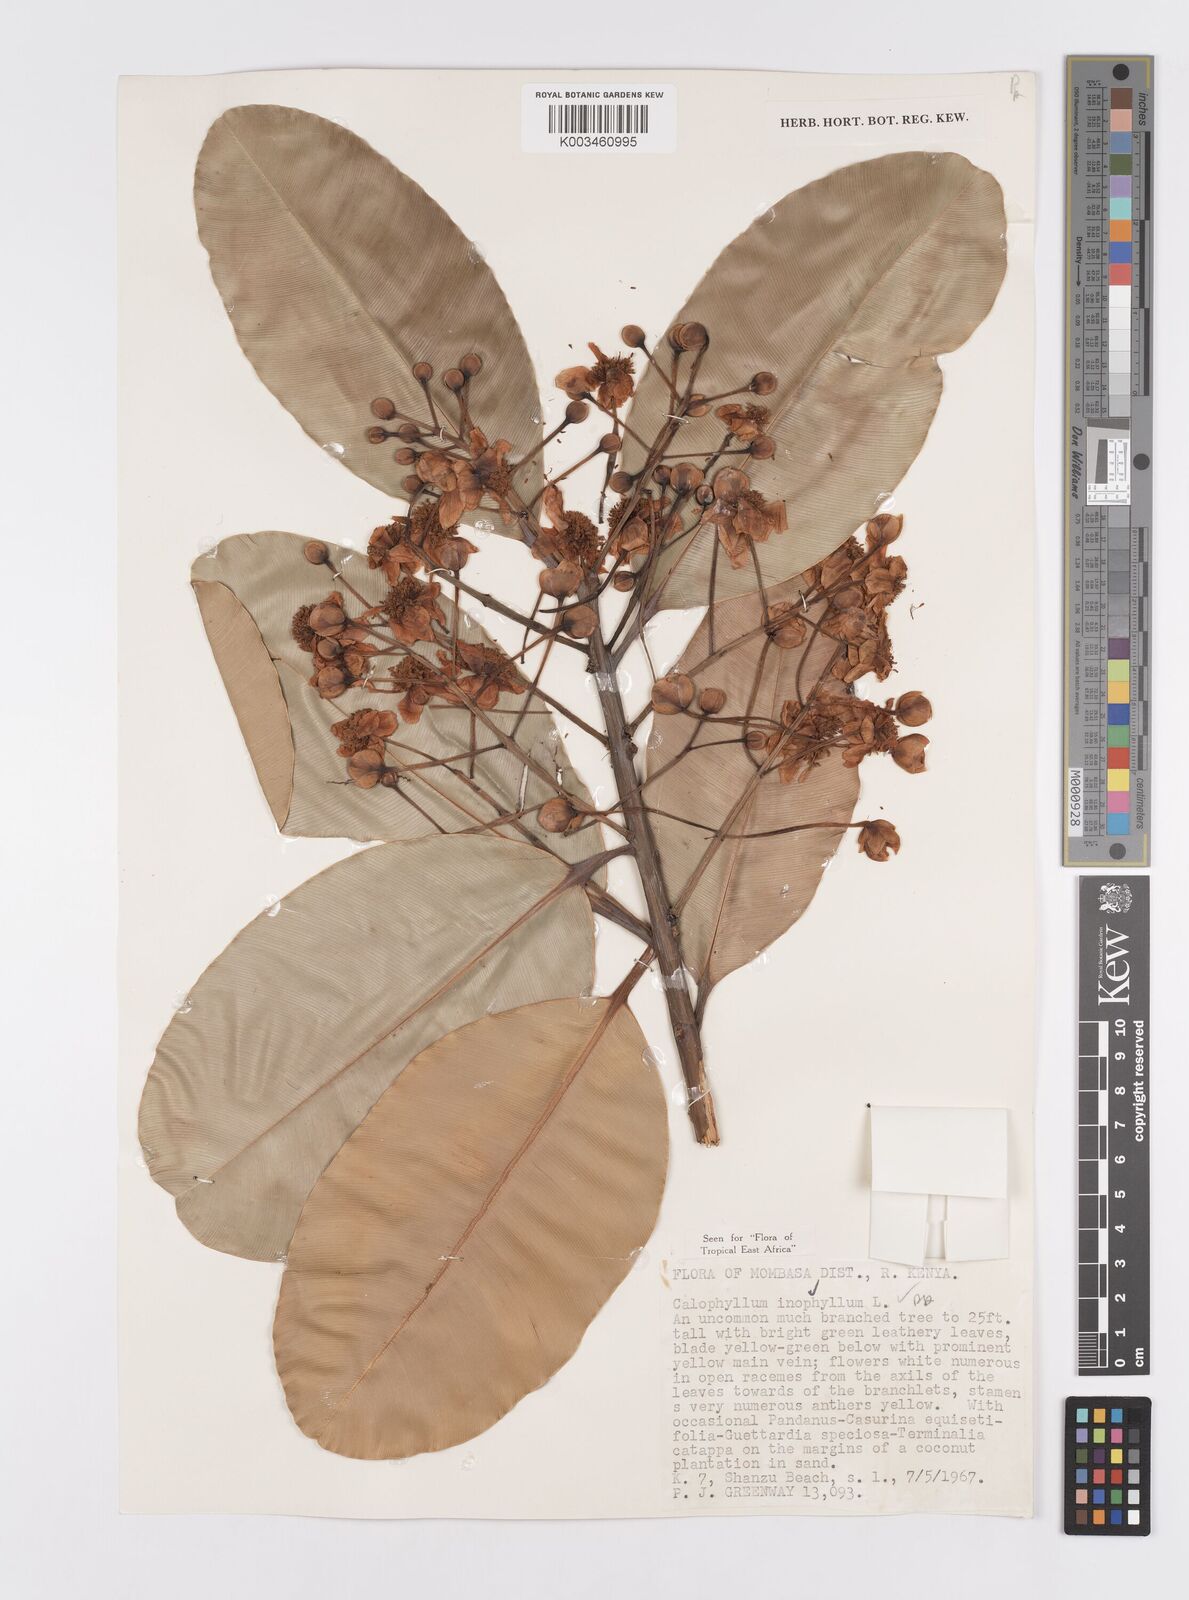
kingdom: Plantae
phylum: Tracheophyta
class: Magnoliopsida
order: Malpighiales
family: Calophyllaceae
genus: Calophyllum
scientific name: Calophyllum inophyllum
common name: Alexandrian laurel
